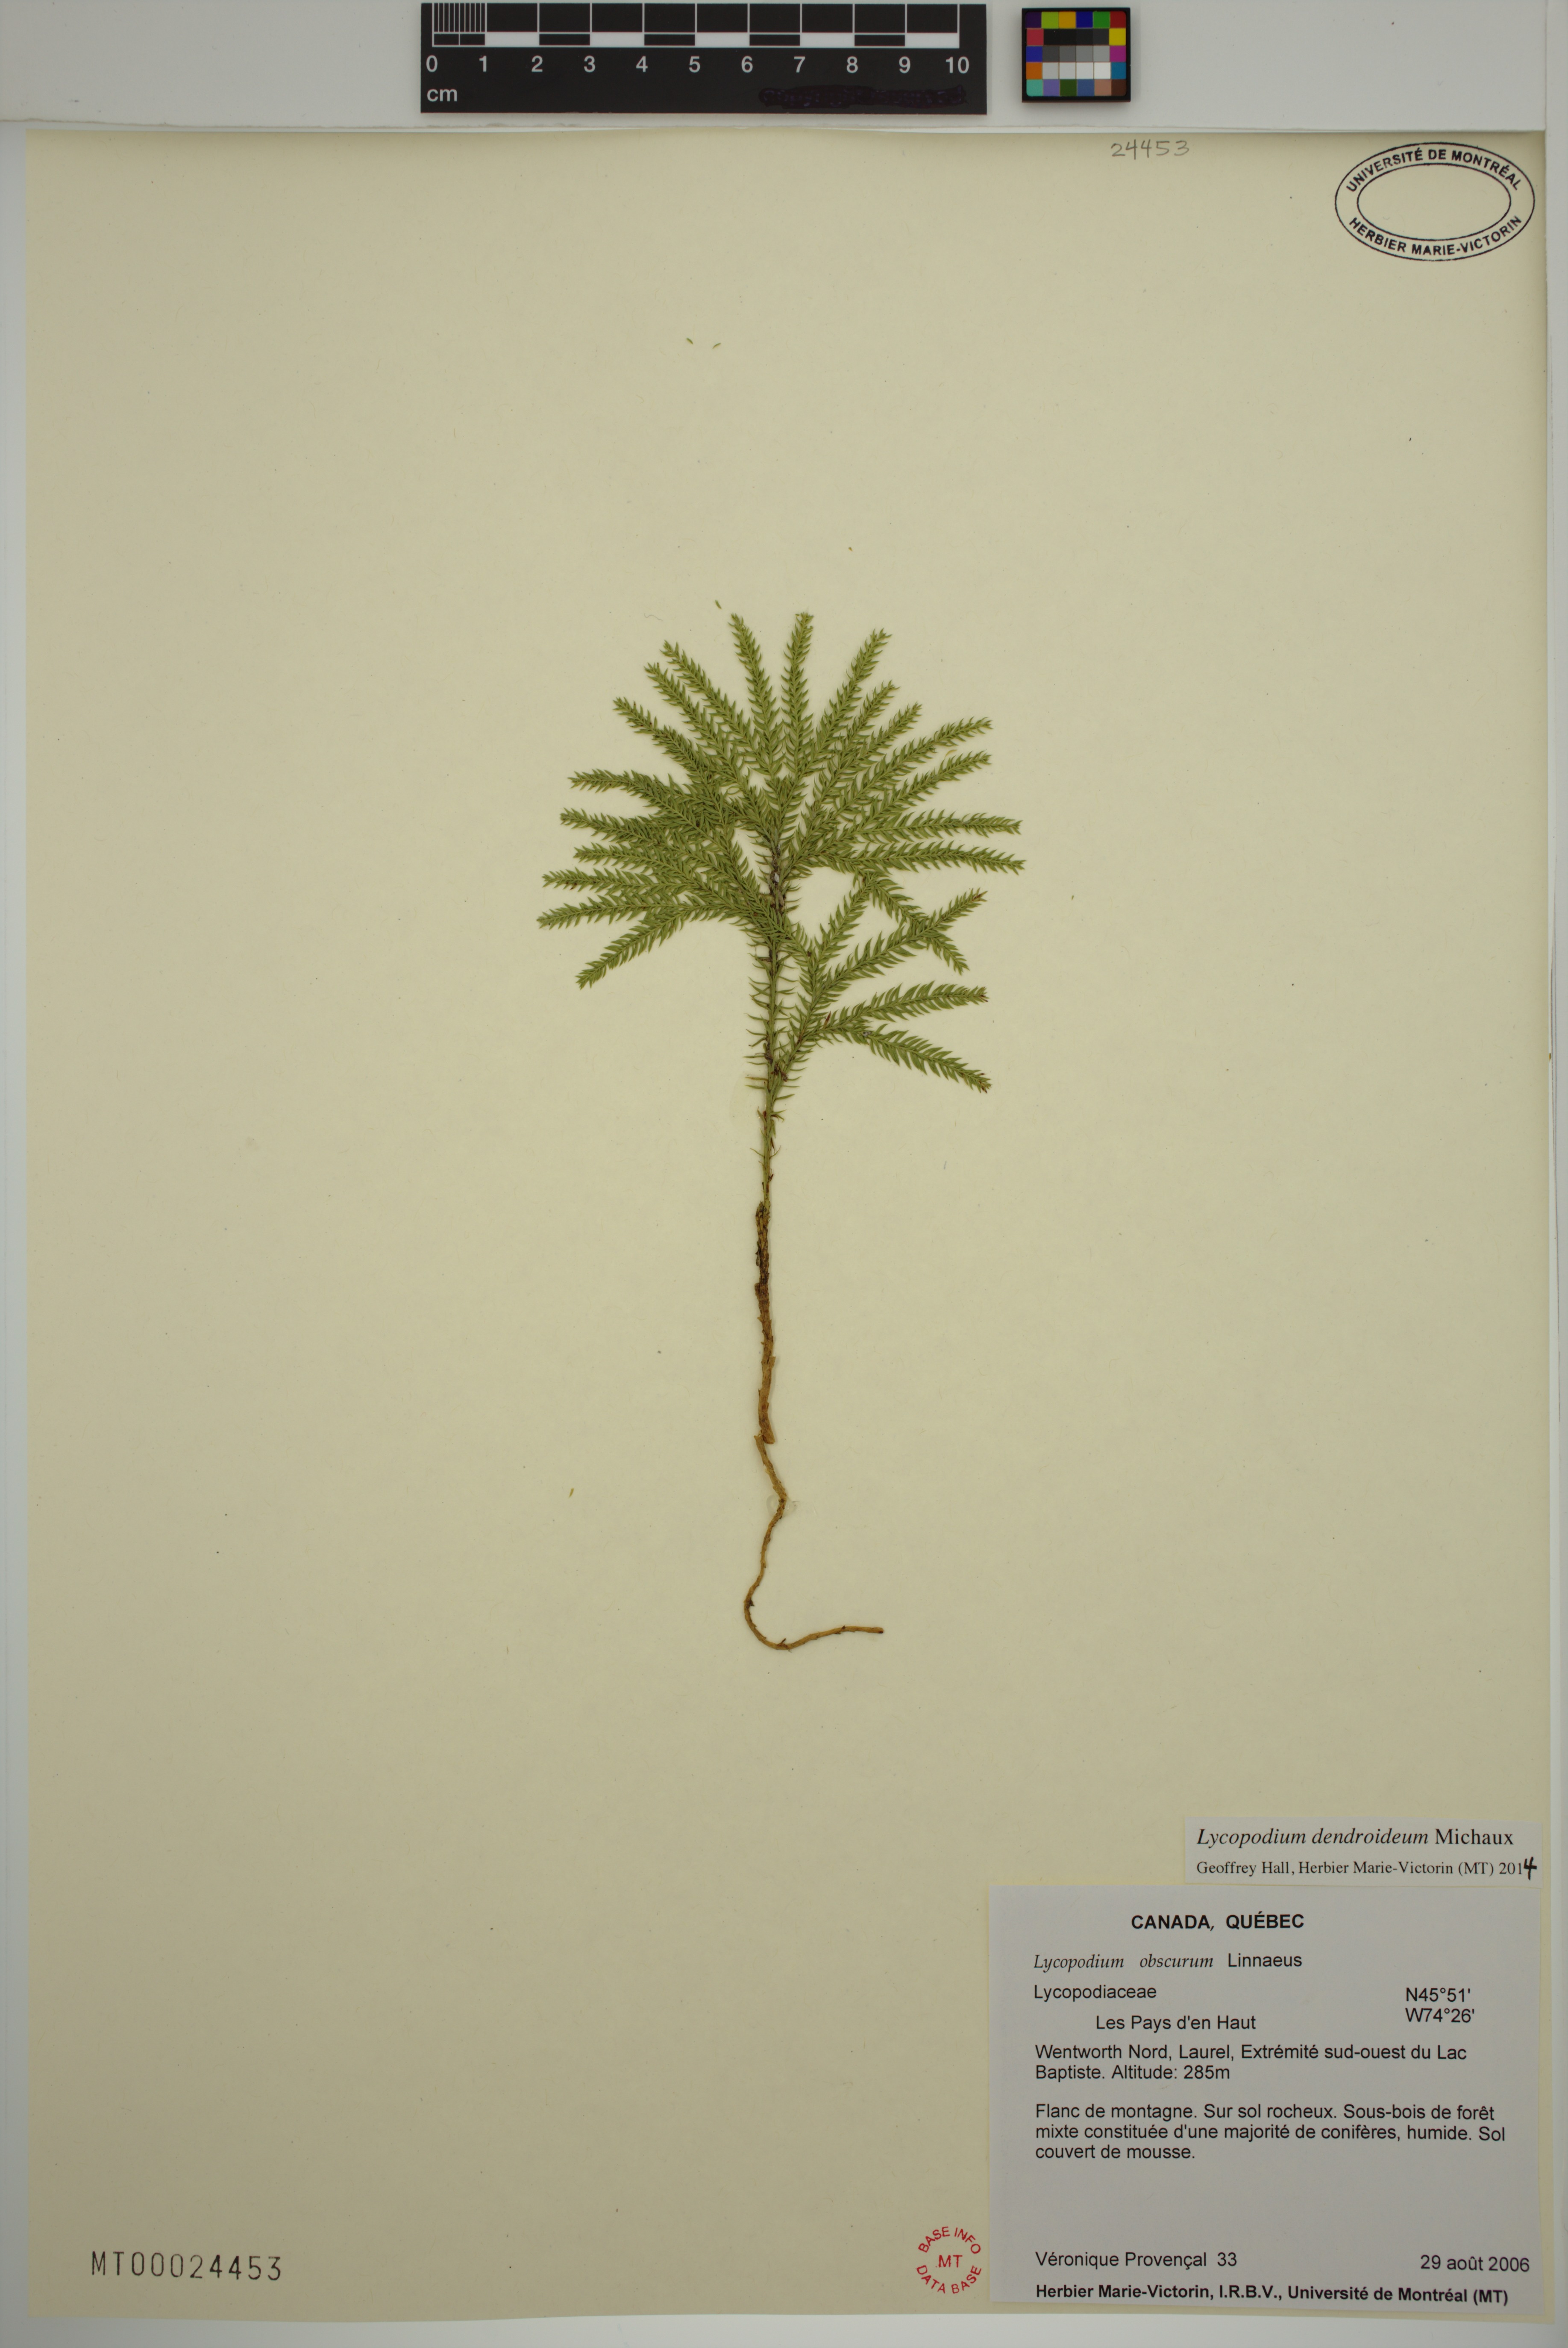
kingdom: Plantae
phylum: Tracheophyta
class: Lycopodiopsida
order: Lycopodiales
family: Lycopodiaceae
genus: Dendrolycopodium
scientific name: Dendrolycopodium dendroideum
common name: Northern tree-clubmoss
